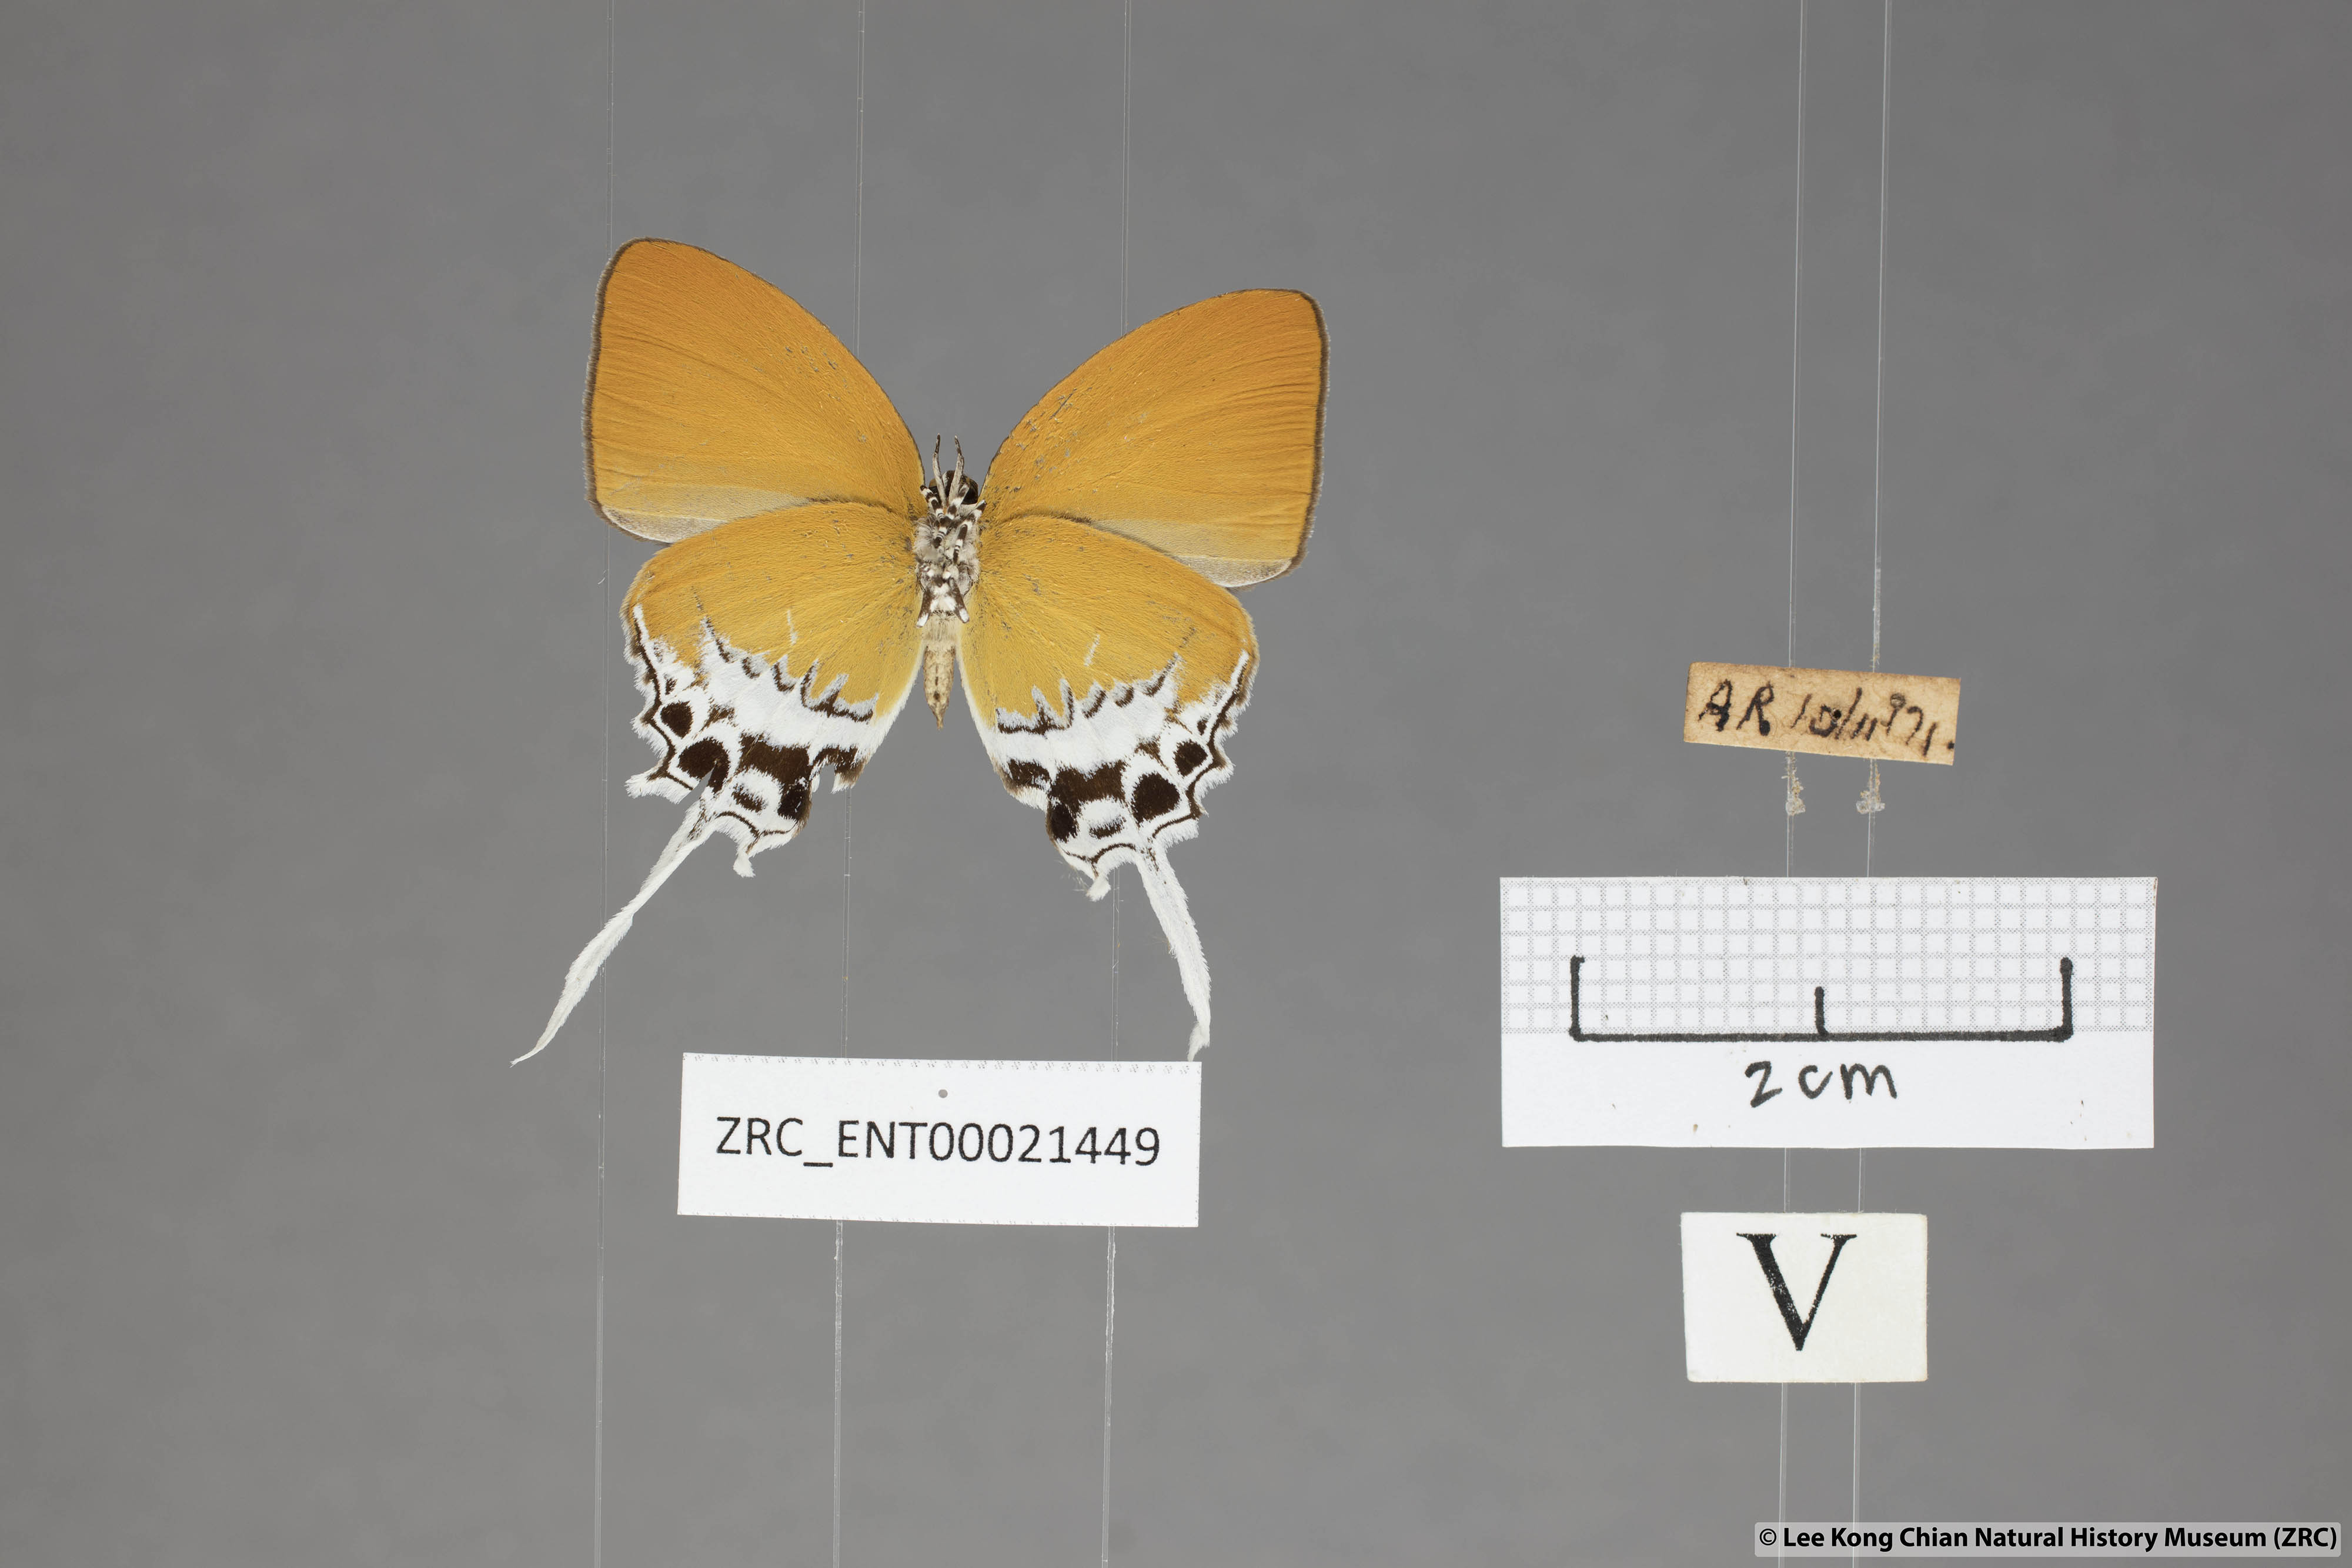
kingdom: Animalia
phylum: Arthropoda
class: Insecta
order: Lepidoptera
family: Lycaenidae
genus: Eooxylides
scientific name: Eooxylides tharis
